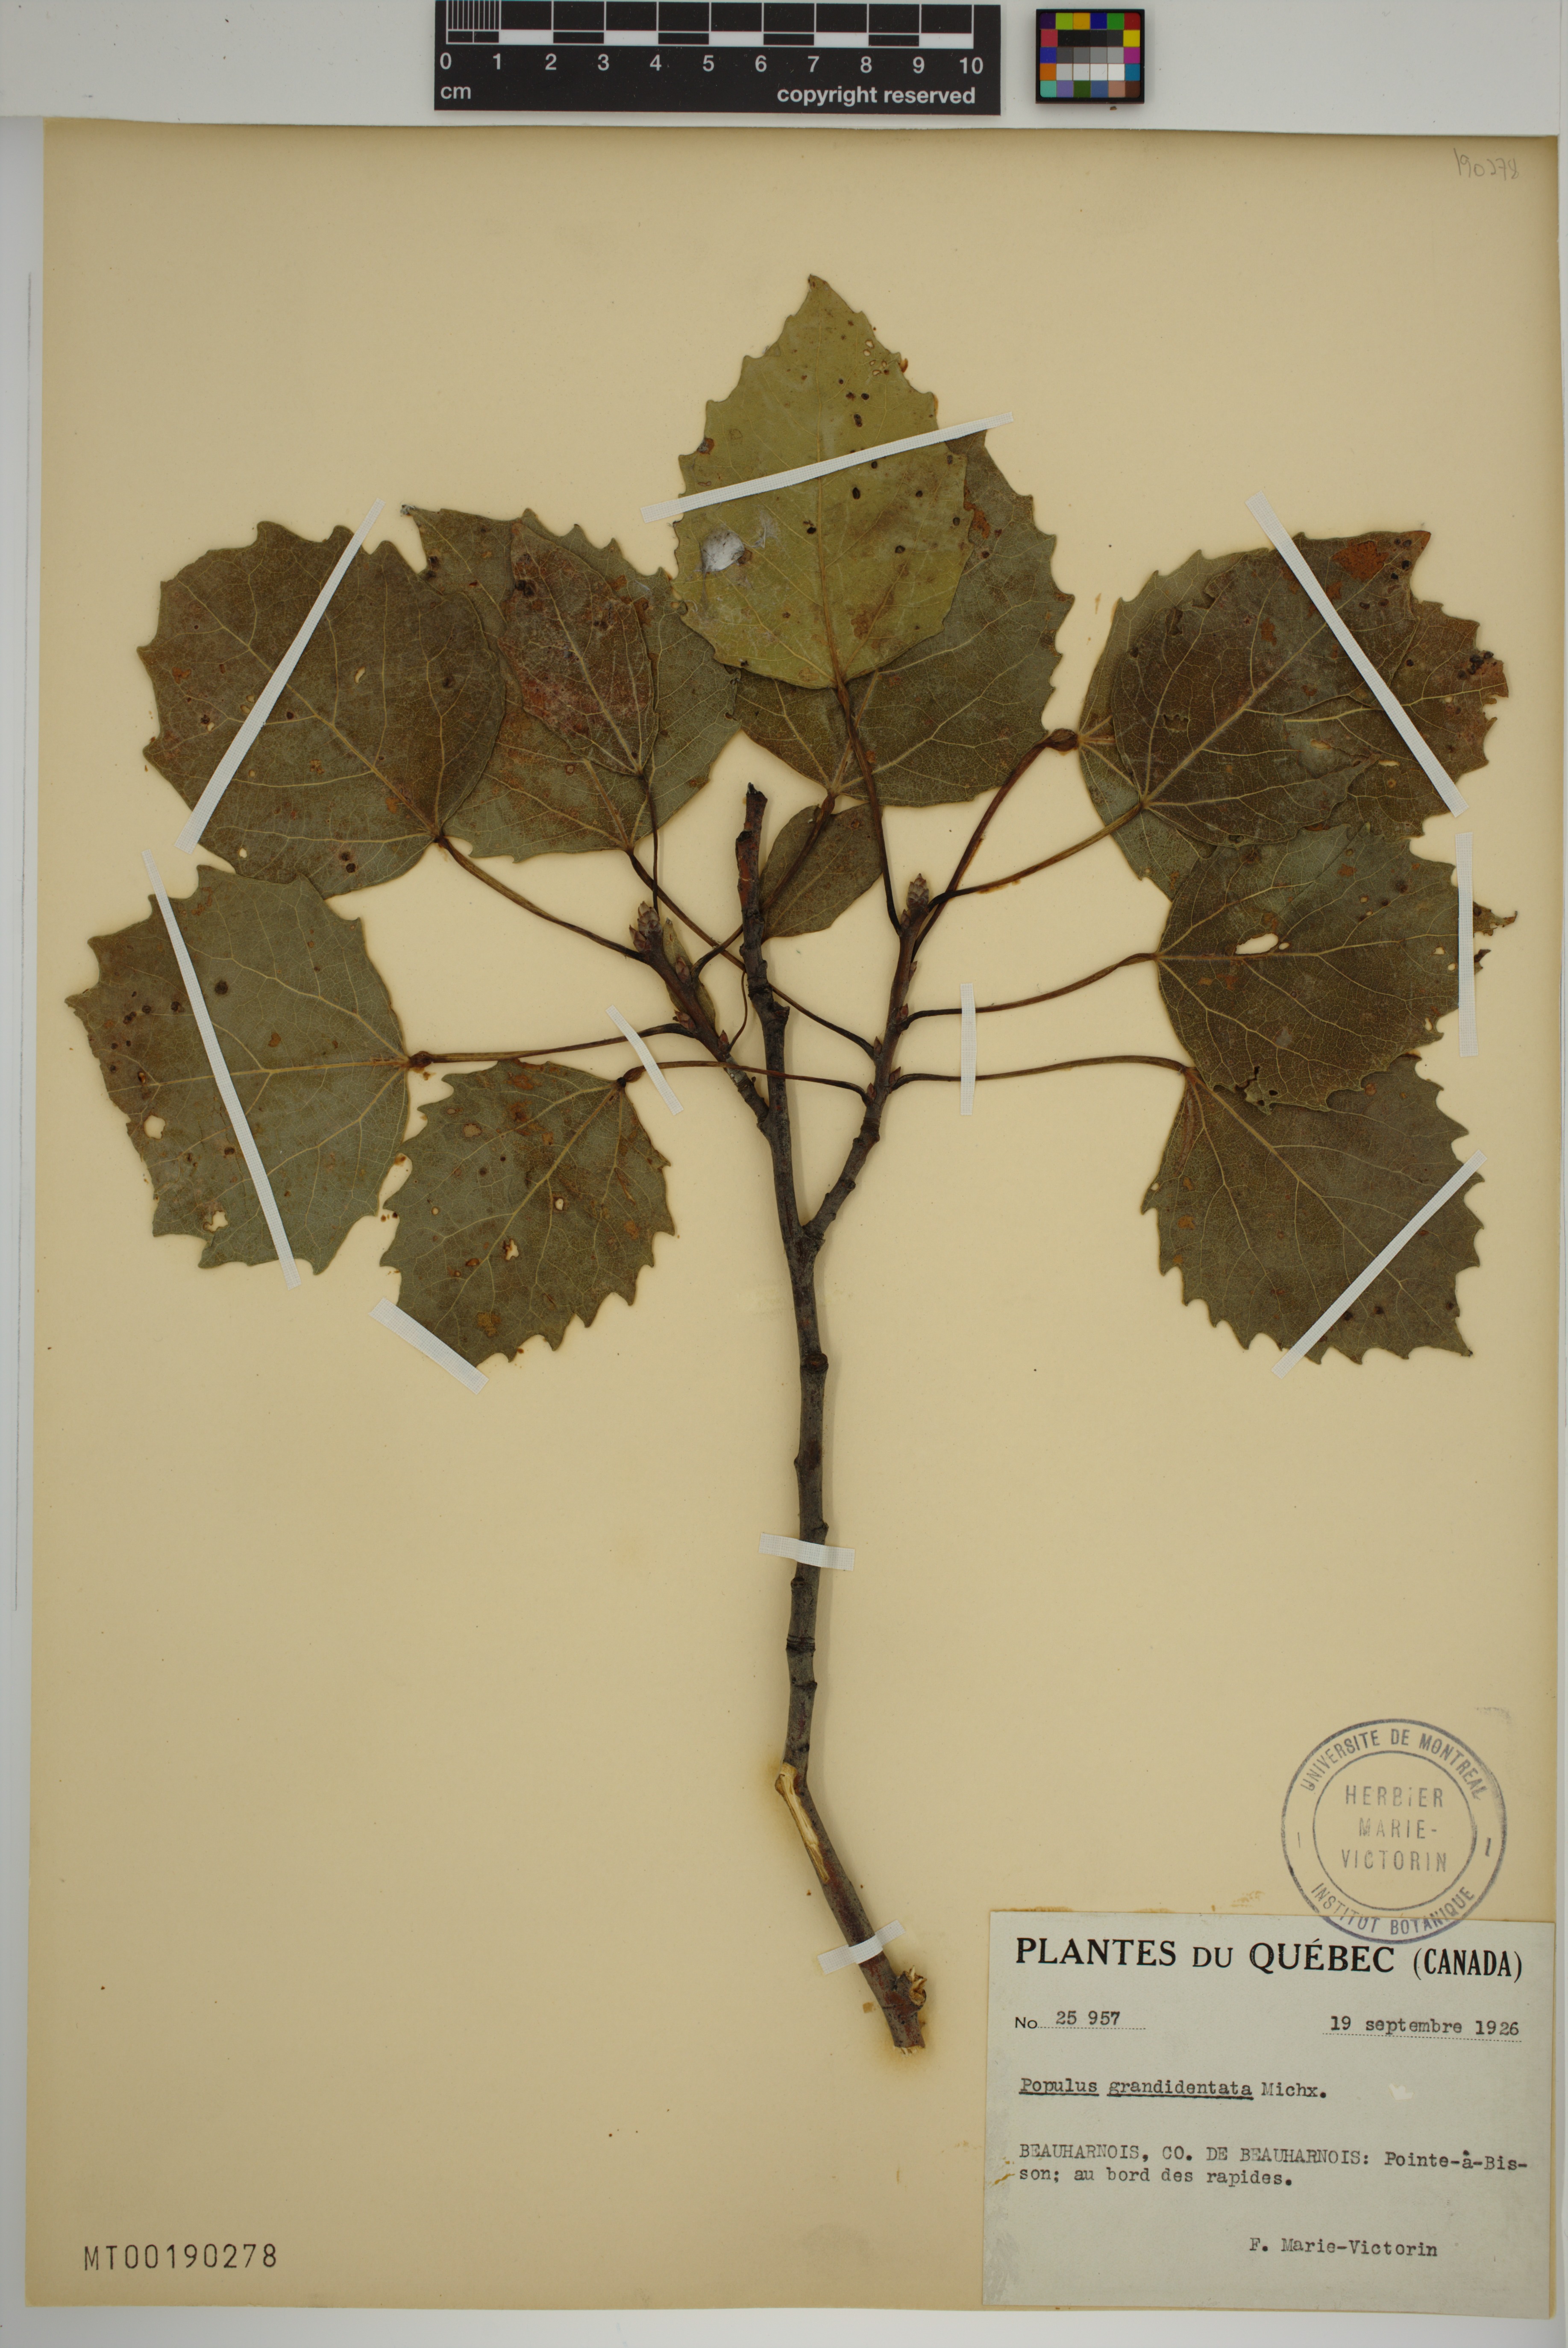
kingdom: Plantae
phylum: Tracheophyta
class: Magnoliopsida
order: Malpighiales
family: Salicaceae
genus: Populus
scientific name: Populus grandidentata
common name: Bigtooth aspen
